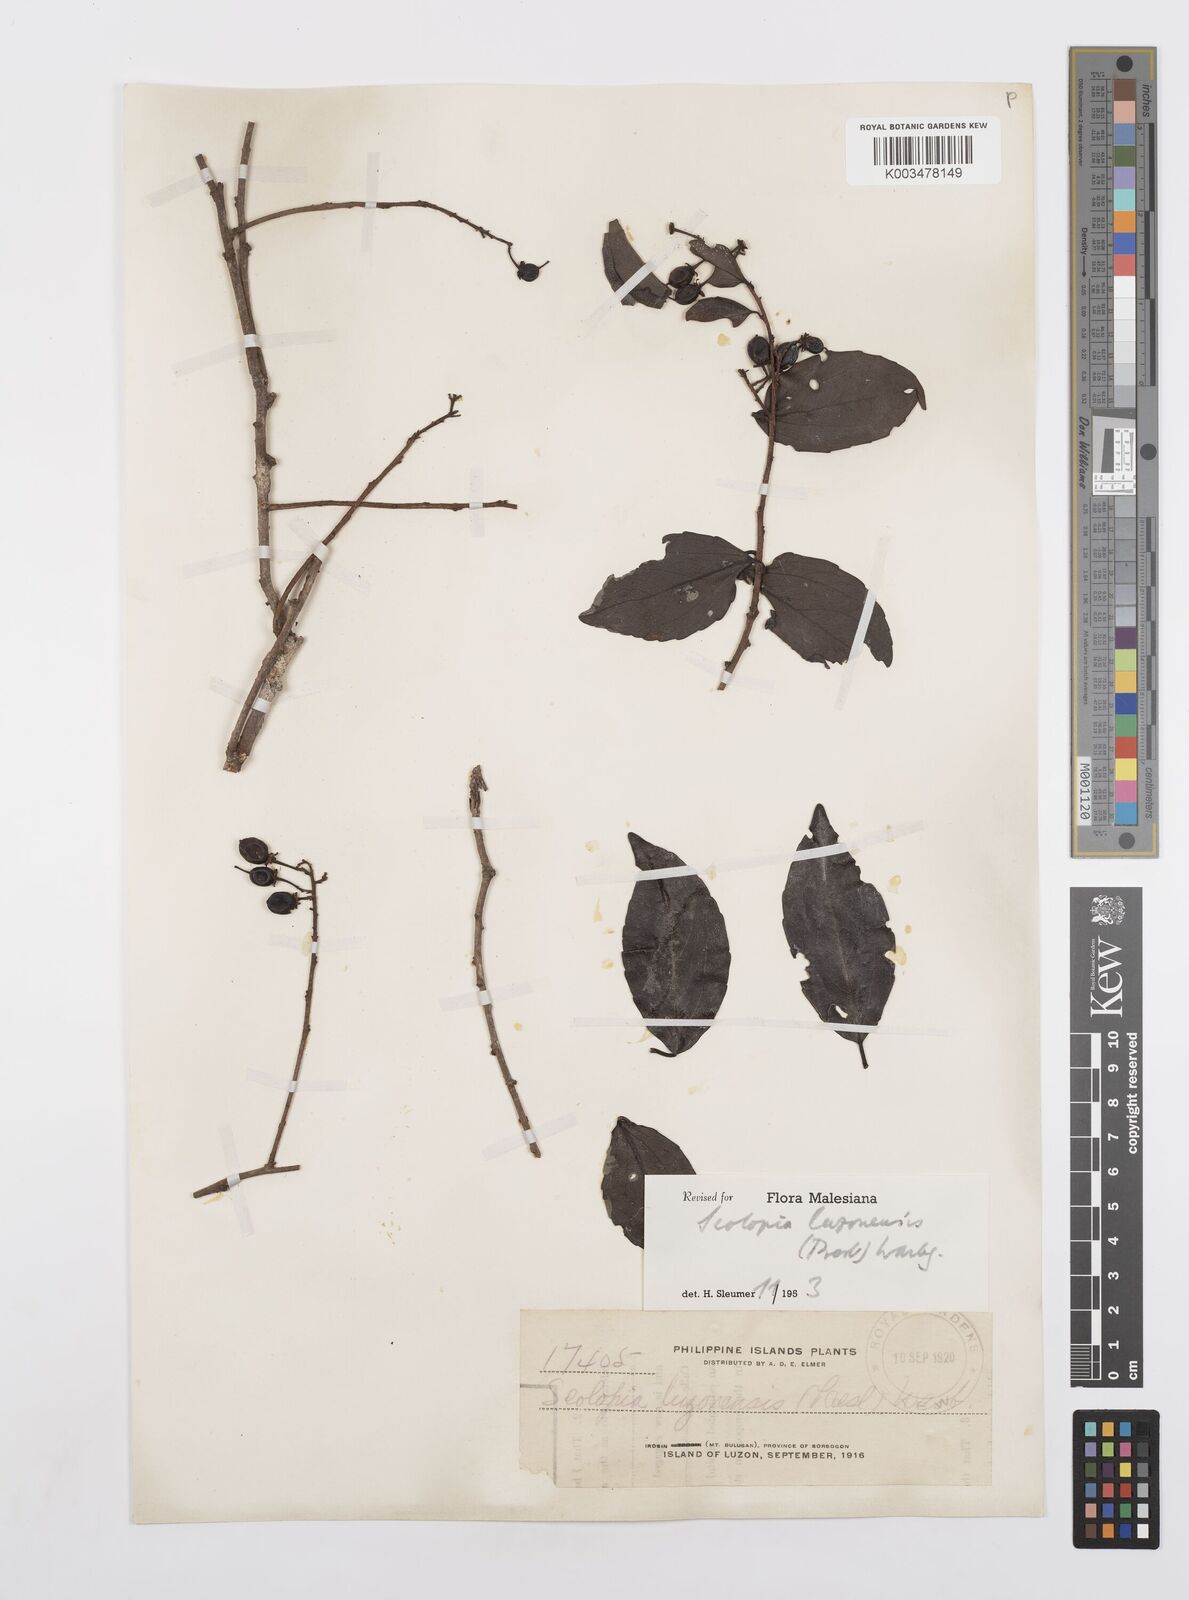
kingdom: Plantae
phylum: Tracheophyta
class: Magnoliopsida
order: Malpighiales
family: Salicaceae
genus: Scolopia
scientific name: Scolopia luzonensis
